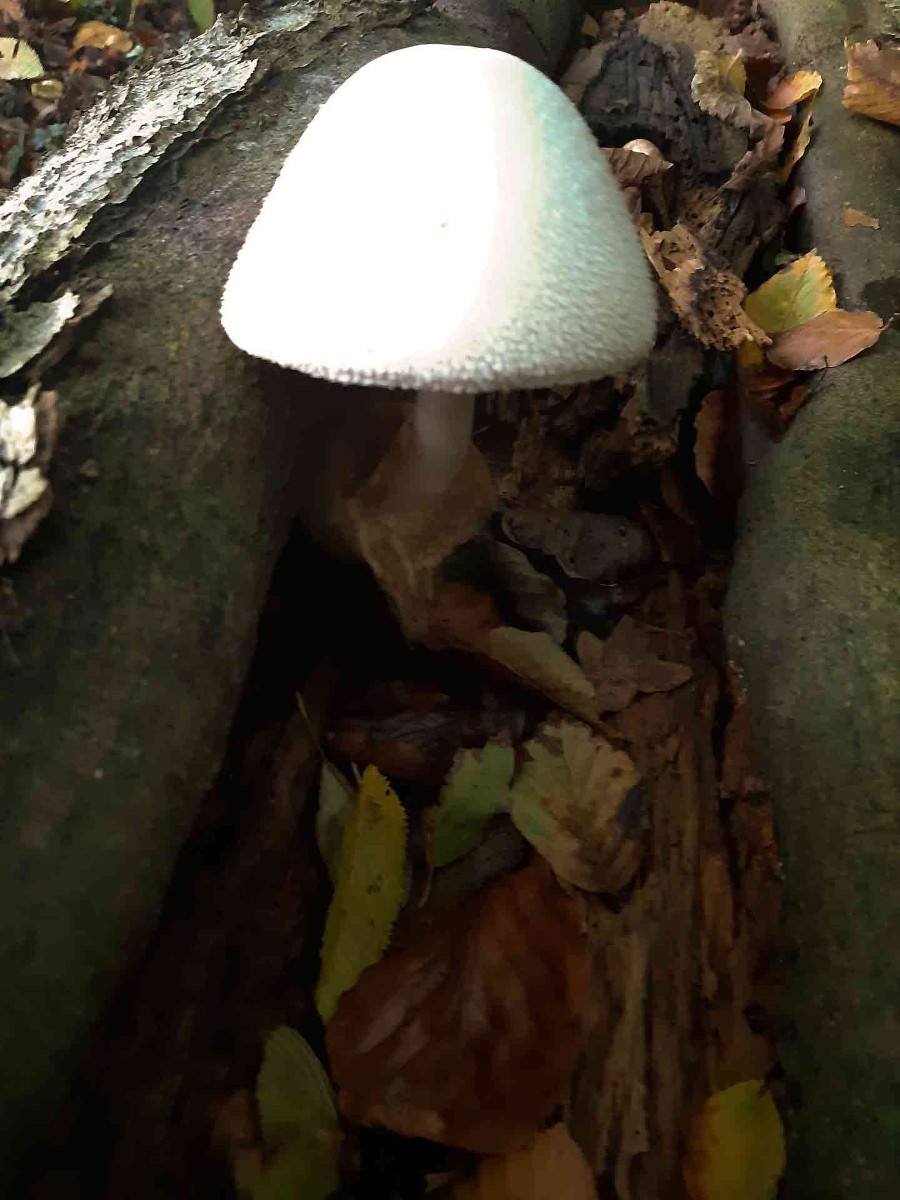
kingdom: Fungi
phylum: Basidiomycota
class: Agaricomycetes
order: Agaricales
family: Pluteaceae
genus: Volvariella
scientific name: Volvariella bombycina
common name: silkehåret posesvamp
